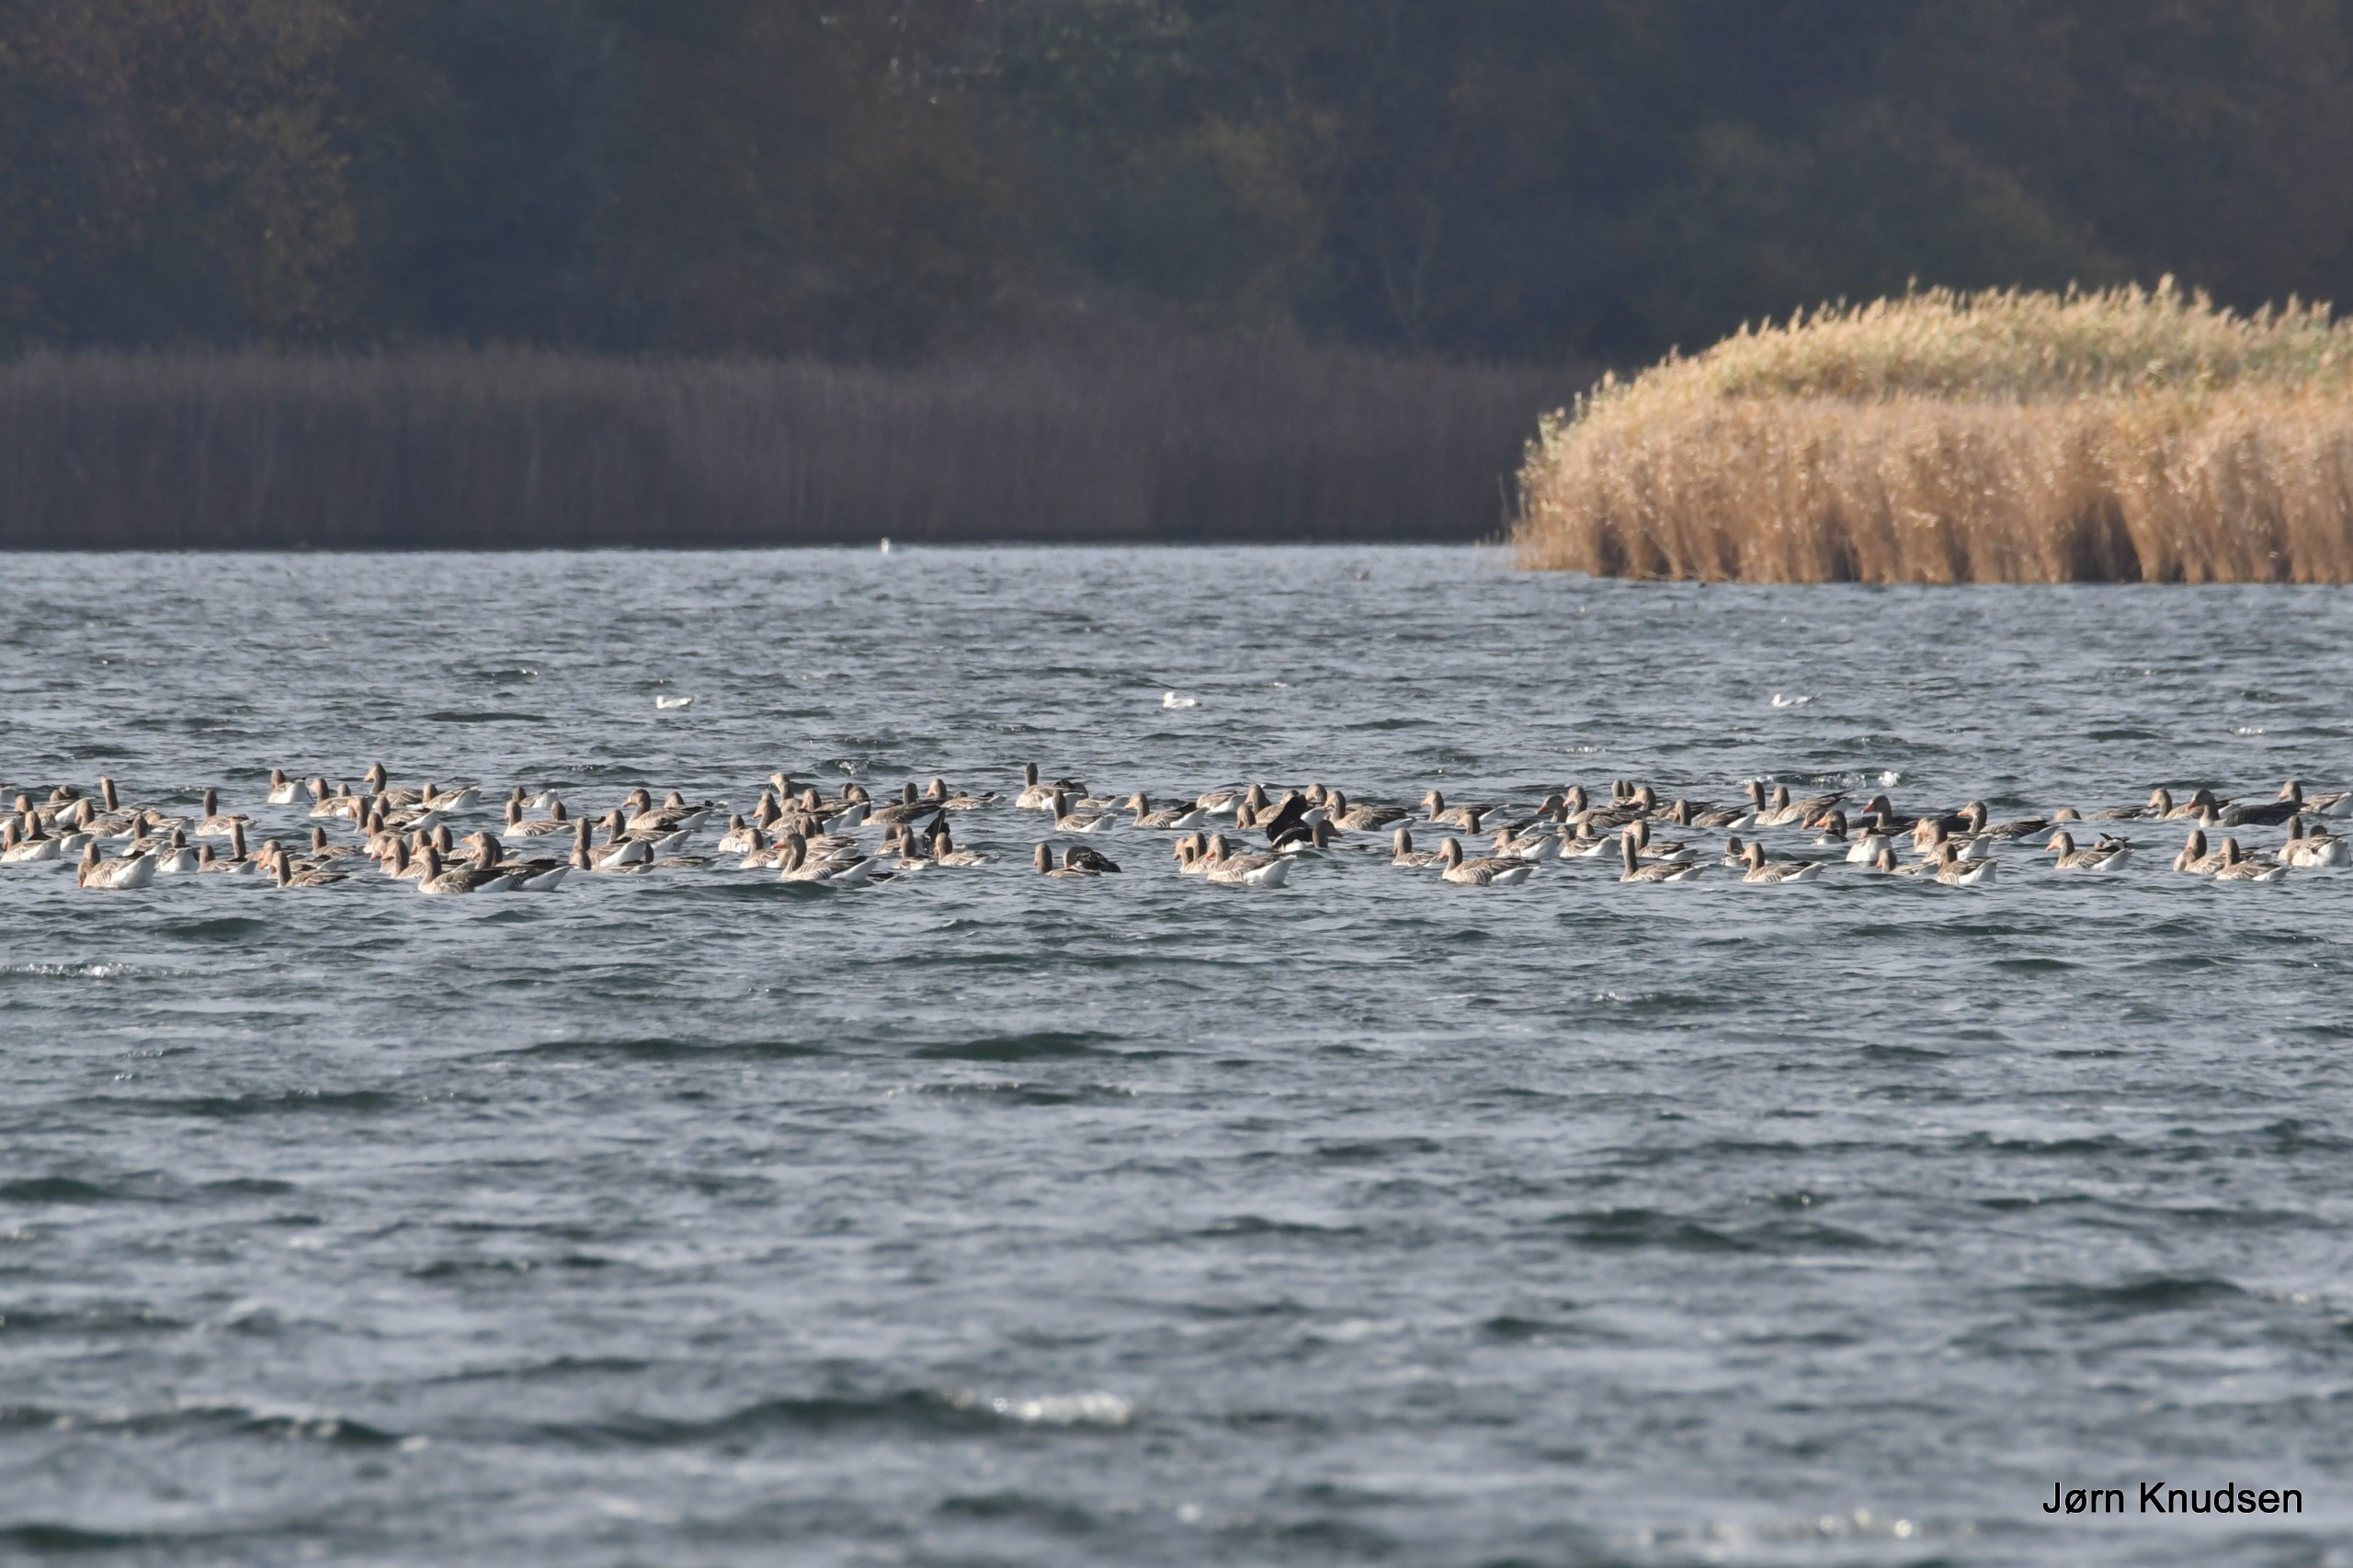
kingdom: Animalia
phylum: Chordata
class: Aves
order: Anseriformes
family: Anatidae
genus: Anser
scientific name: Anser anser
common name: Grågås
